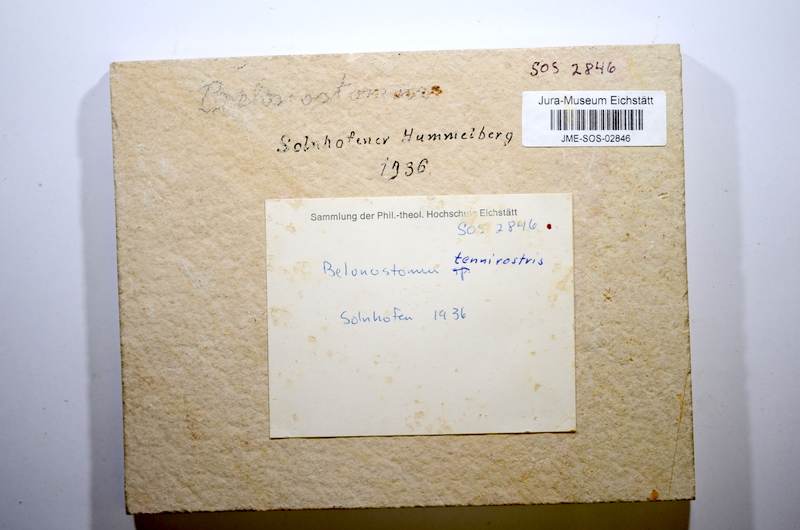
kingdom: Animalia
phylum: Chordata
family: Aspidorhynchidae
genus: Belonostomus
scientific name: Belonostomus tenuirostris
